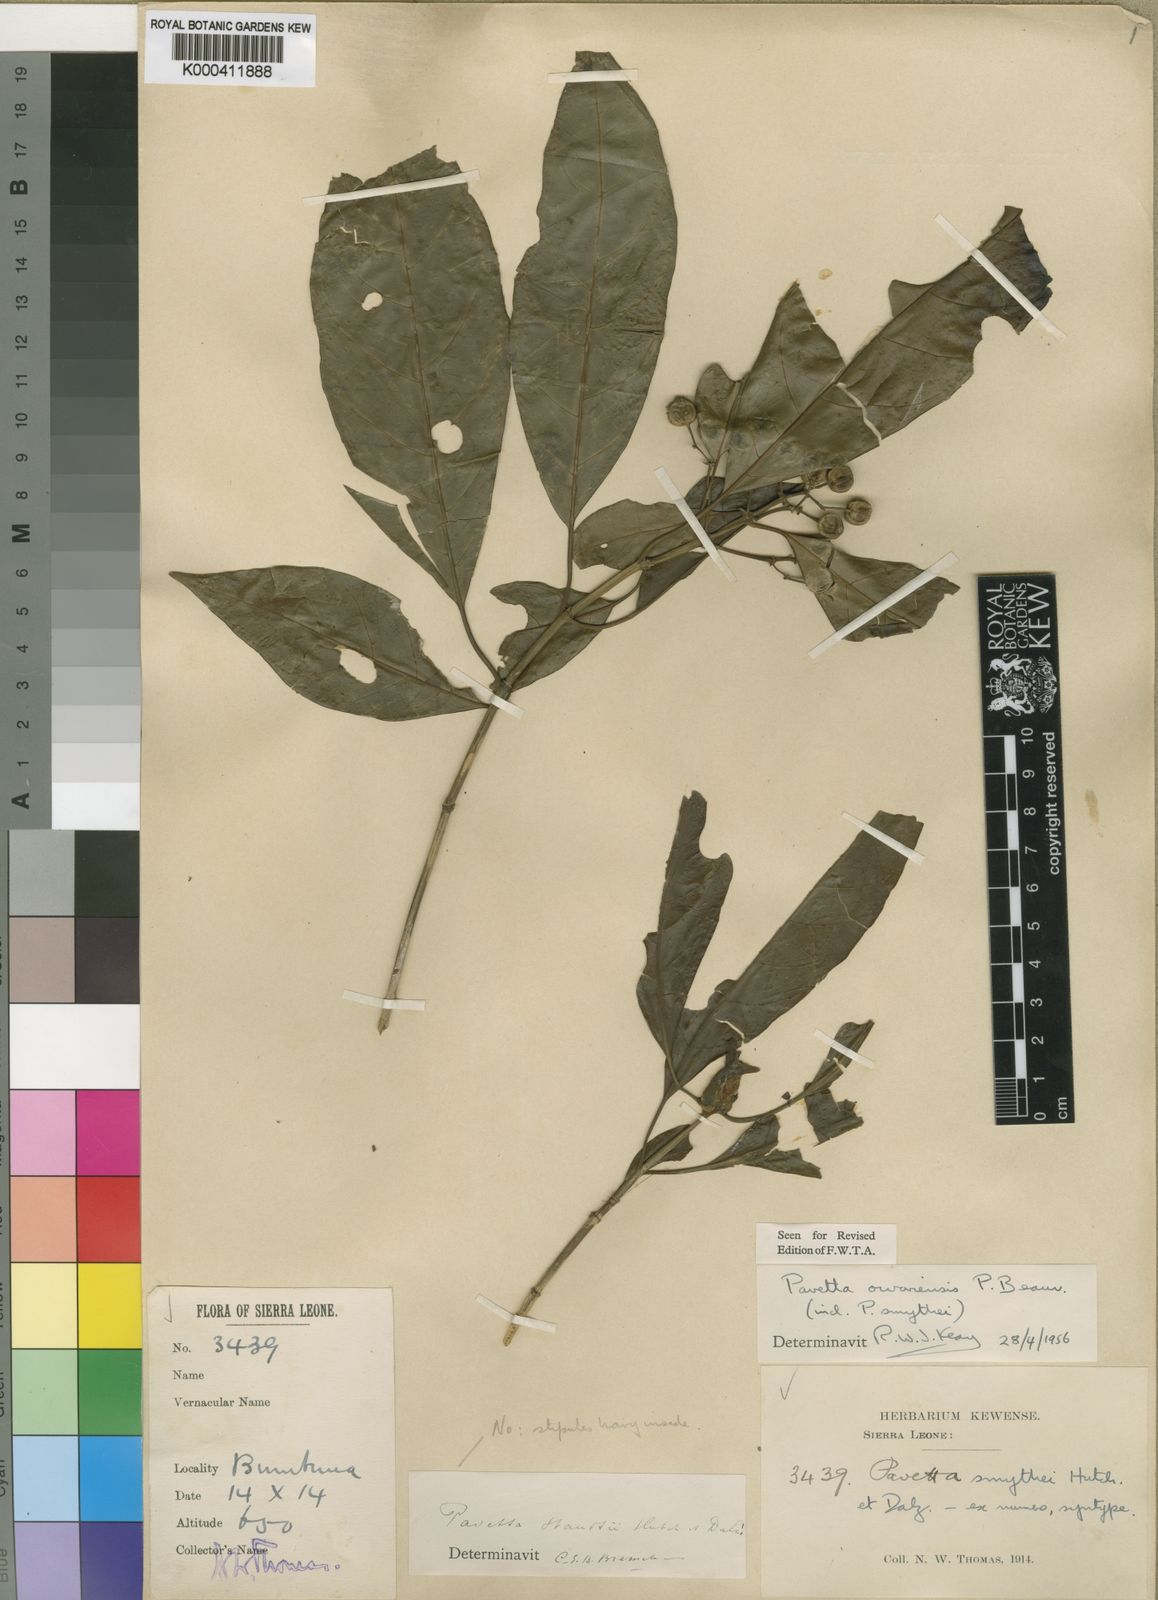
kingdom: Plantae
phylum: Tracheophyta
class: Magnoliopsida
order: Gentianales
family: Rubiaceae
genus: Pavetta
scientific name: Pavetta owariensis
